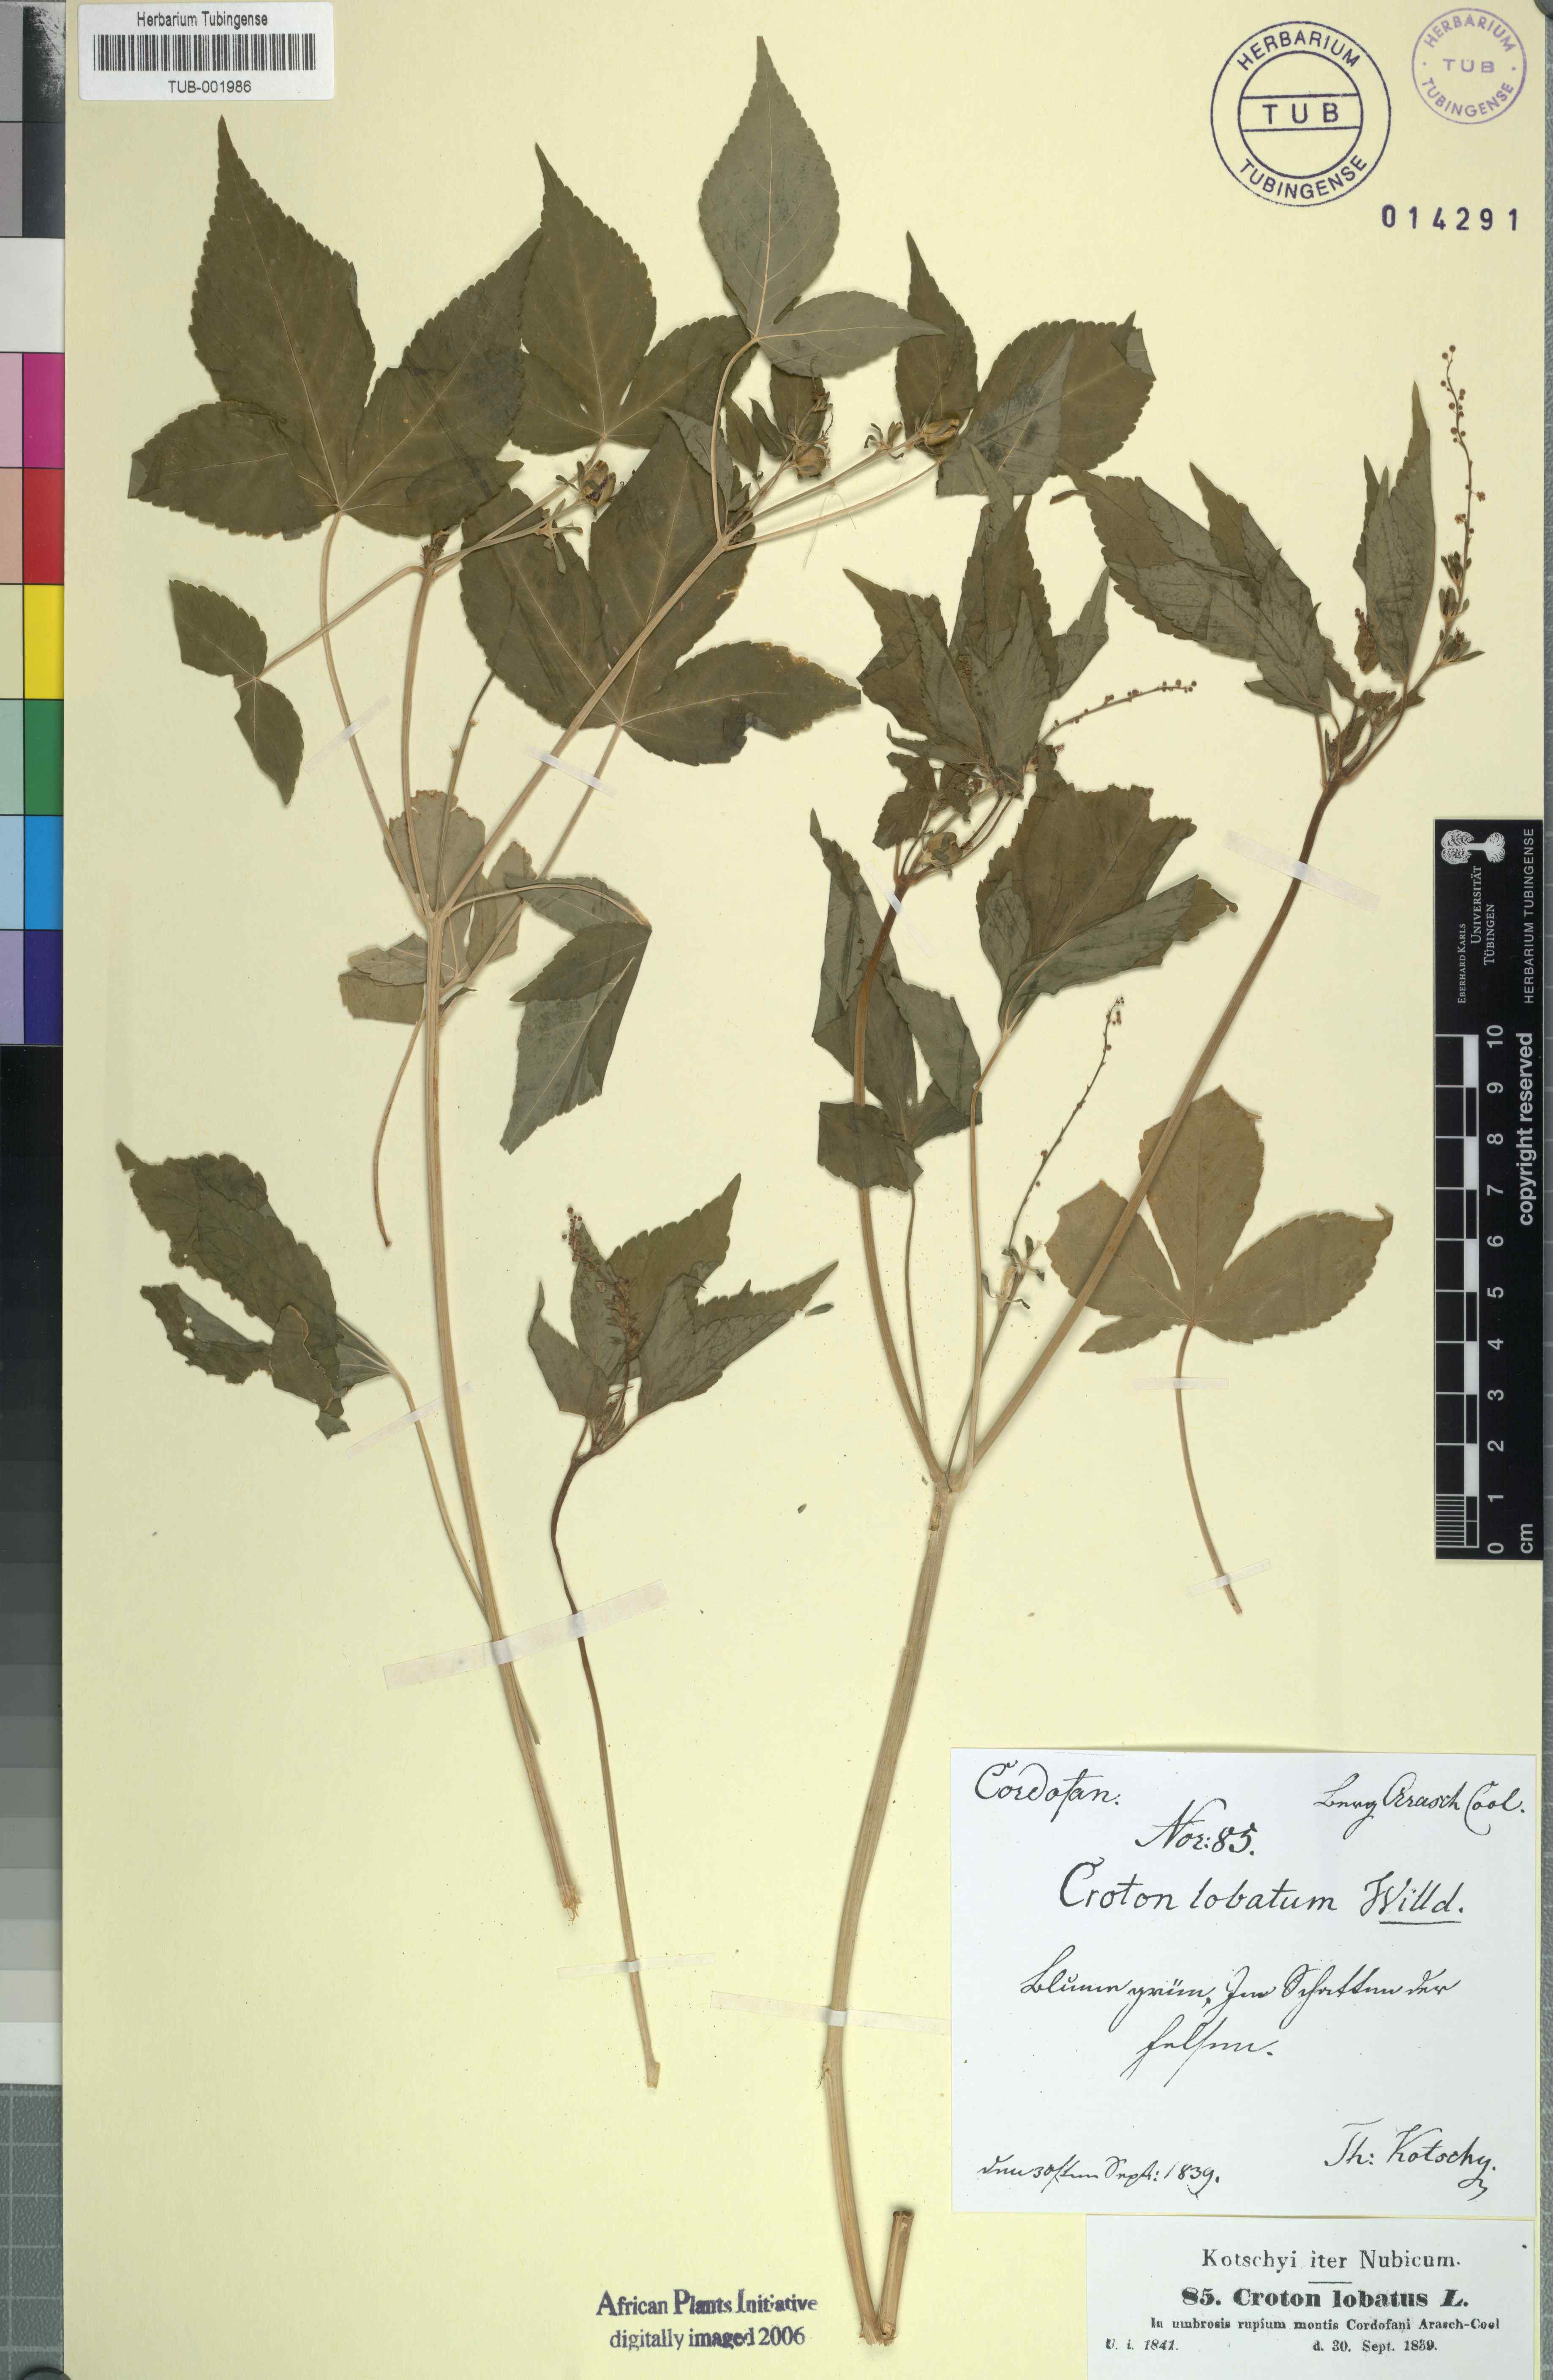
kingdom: Plantae
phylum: Tracheophyta
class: Magnoliopsida
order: Malpighiales
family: Euphorbiaceae
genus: Astraea
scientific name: Astraea lobata
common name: Lobed croton
